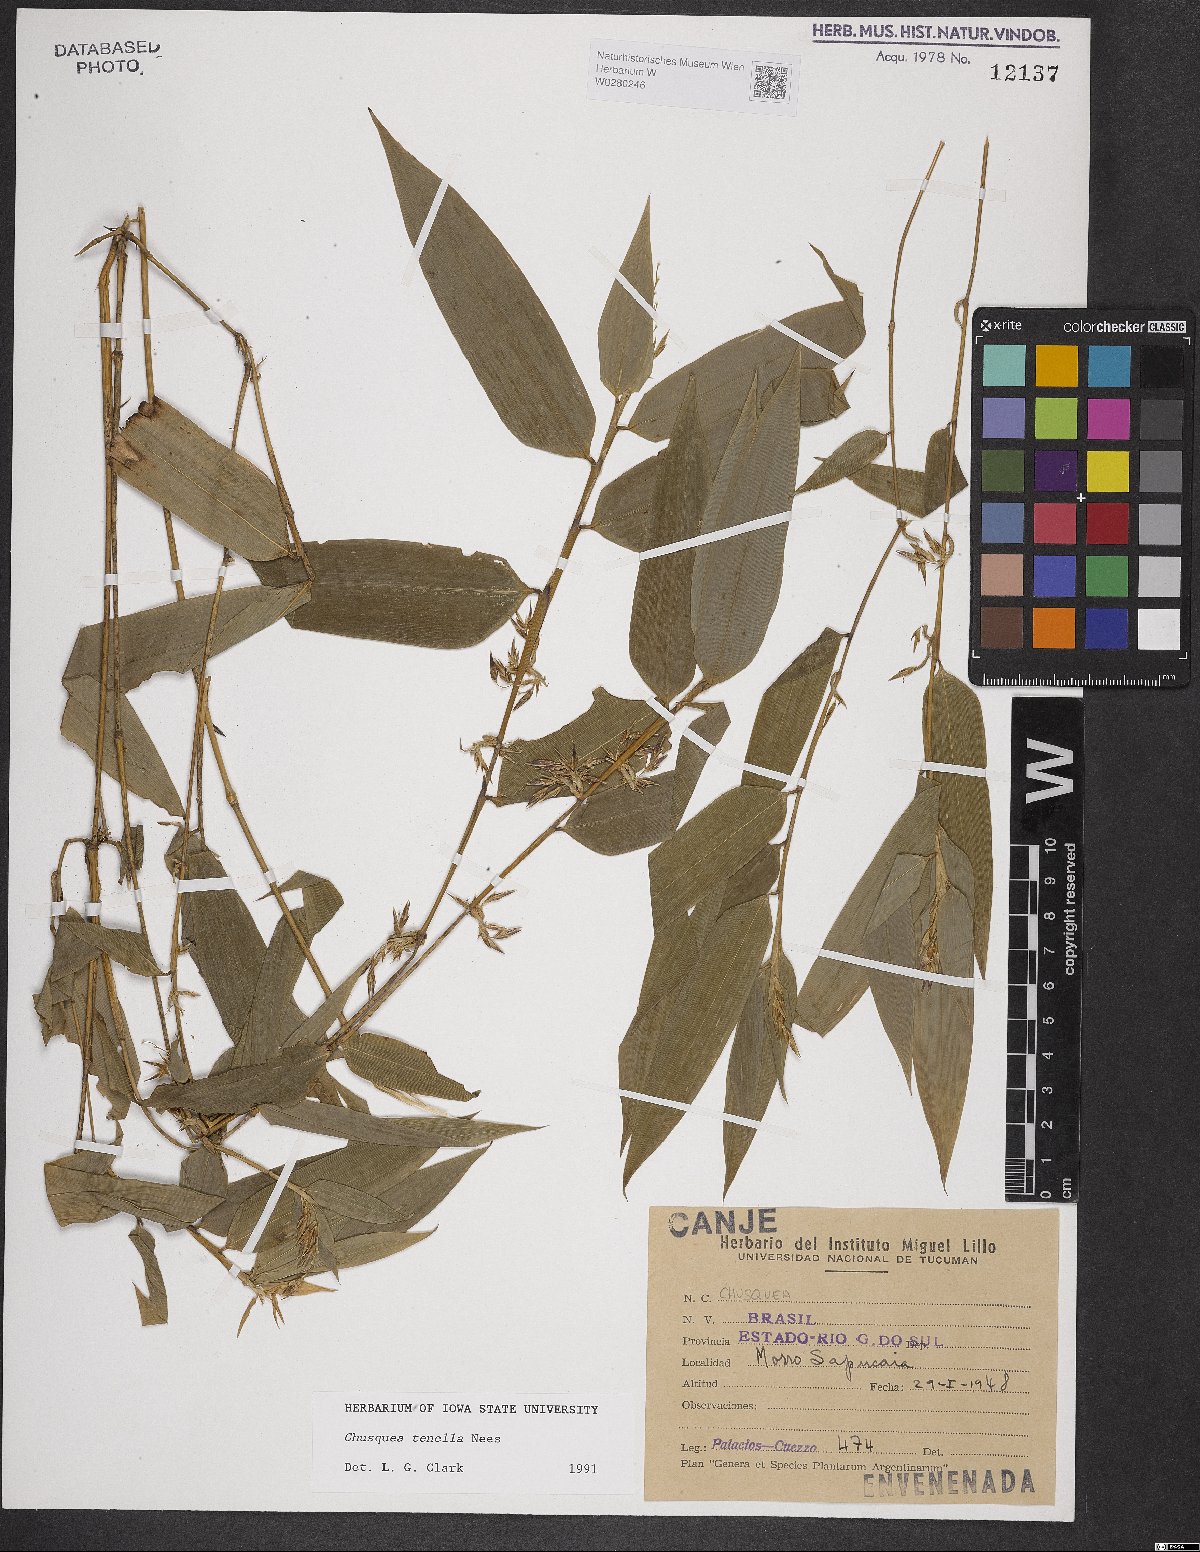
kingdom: Plantae
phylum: Tracheophyta
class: Liliopsida
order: Poales
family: Poaceae
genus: Chusquea
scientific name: Chusquea tenella
